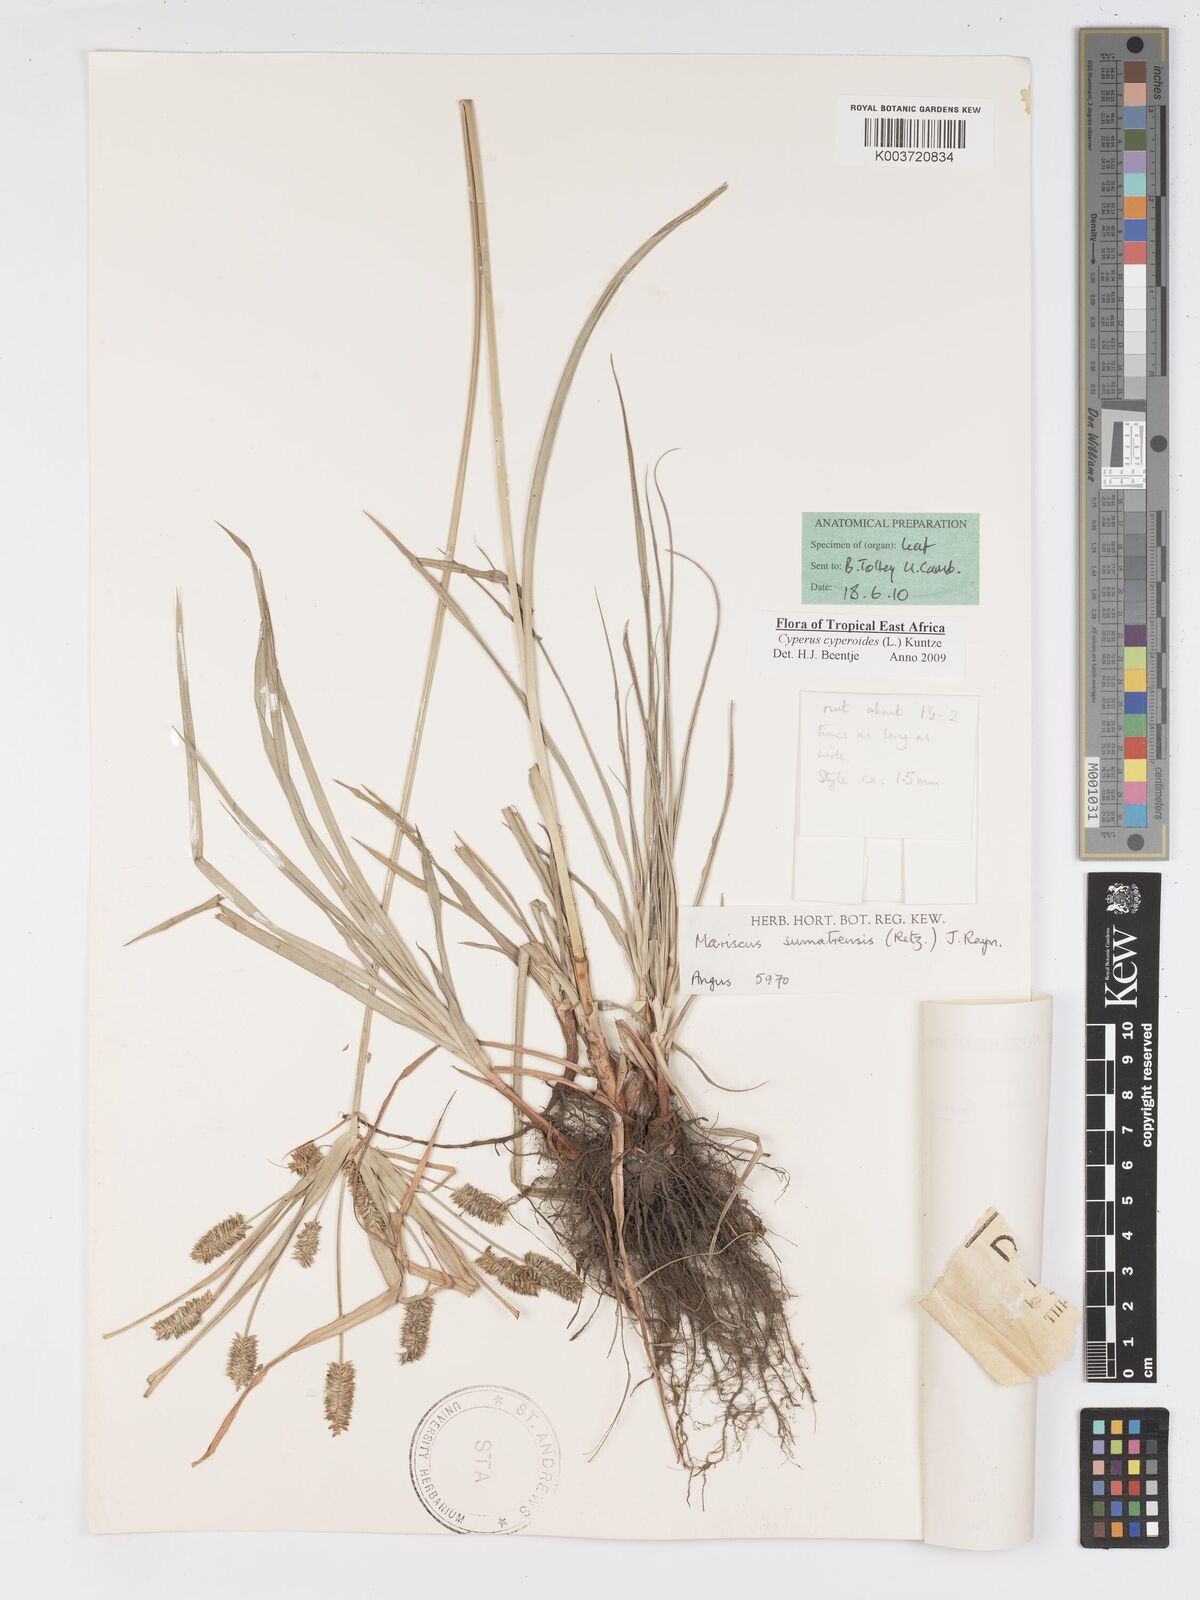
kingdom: Plantae
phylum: Tracheophyta
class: Liliopsida
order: Poales
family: Cyperaceae
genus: Cyperus
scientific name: Cyperus cyperoides
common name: Pacific island flat sedge
